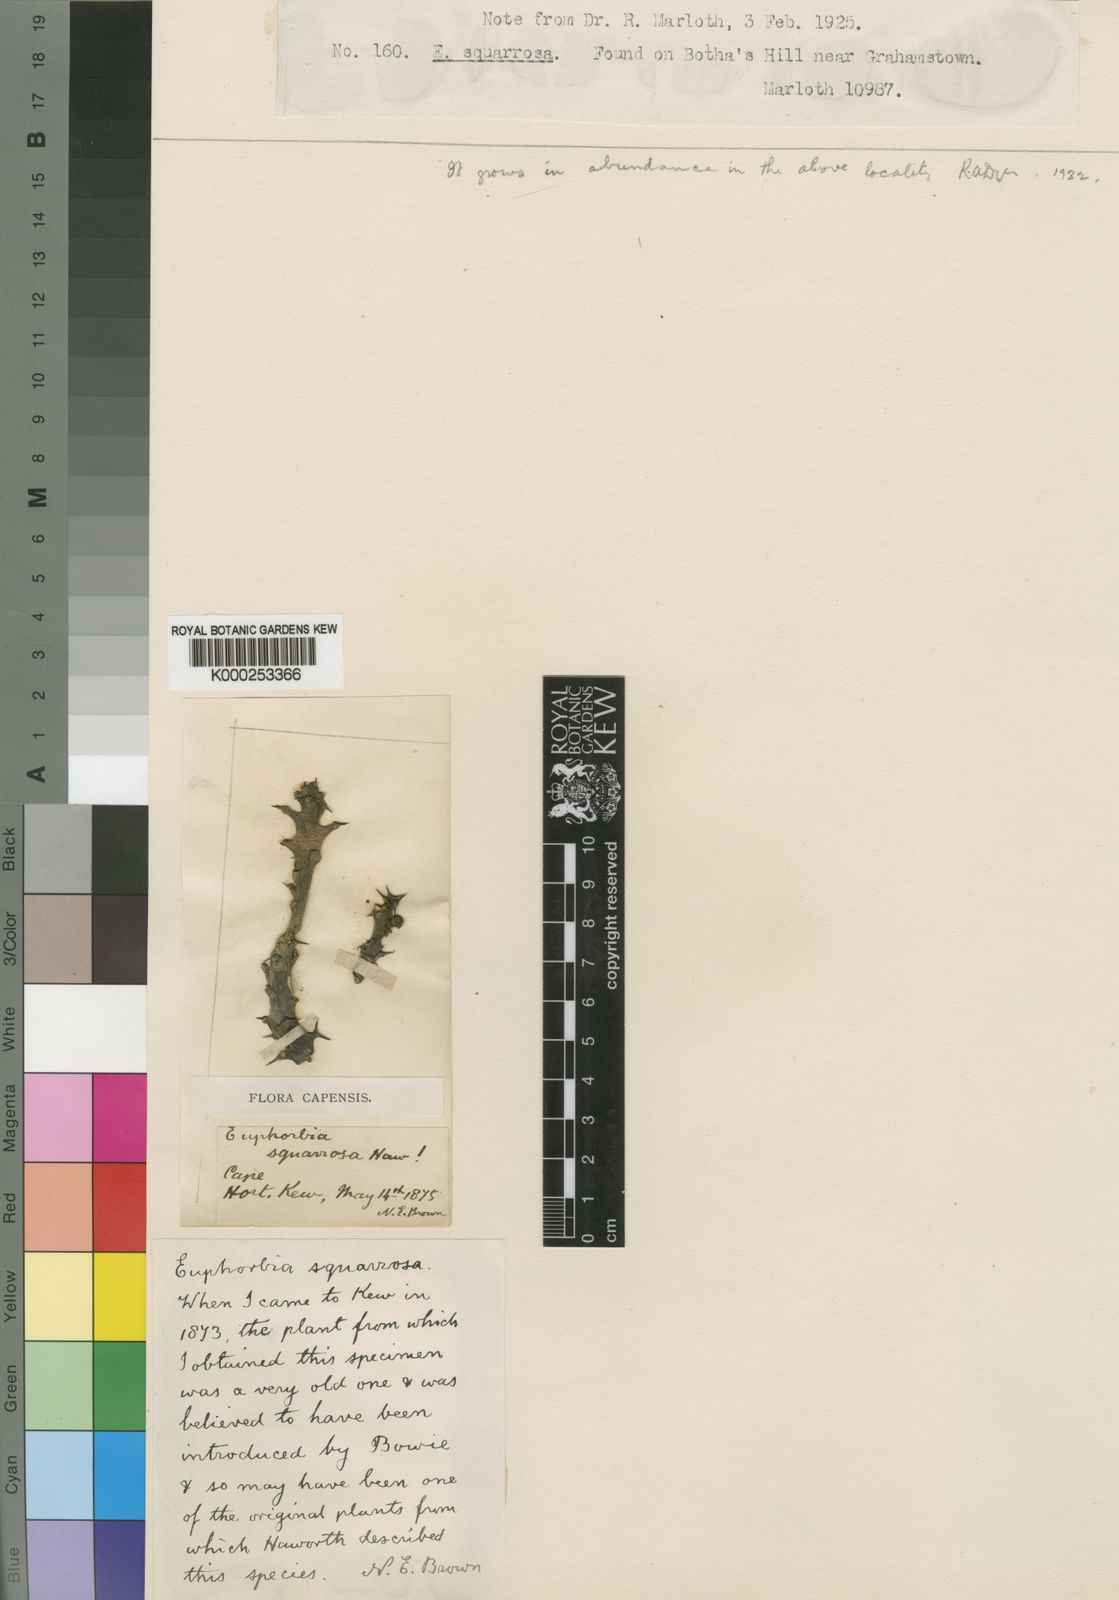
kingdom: Plantae
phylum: Tracheophyta
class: Magnoliopsida
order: Malpighiales
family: Euphorbiaceae
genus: Euphorbia
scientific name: Euphorbia squarrosa
